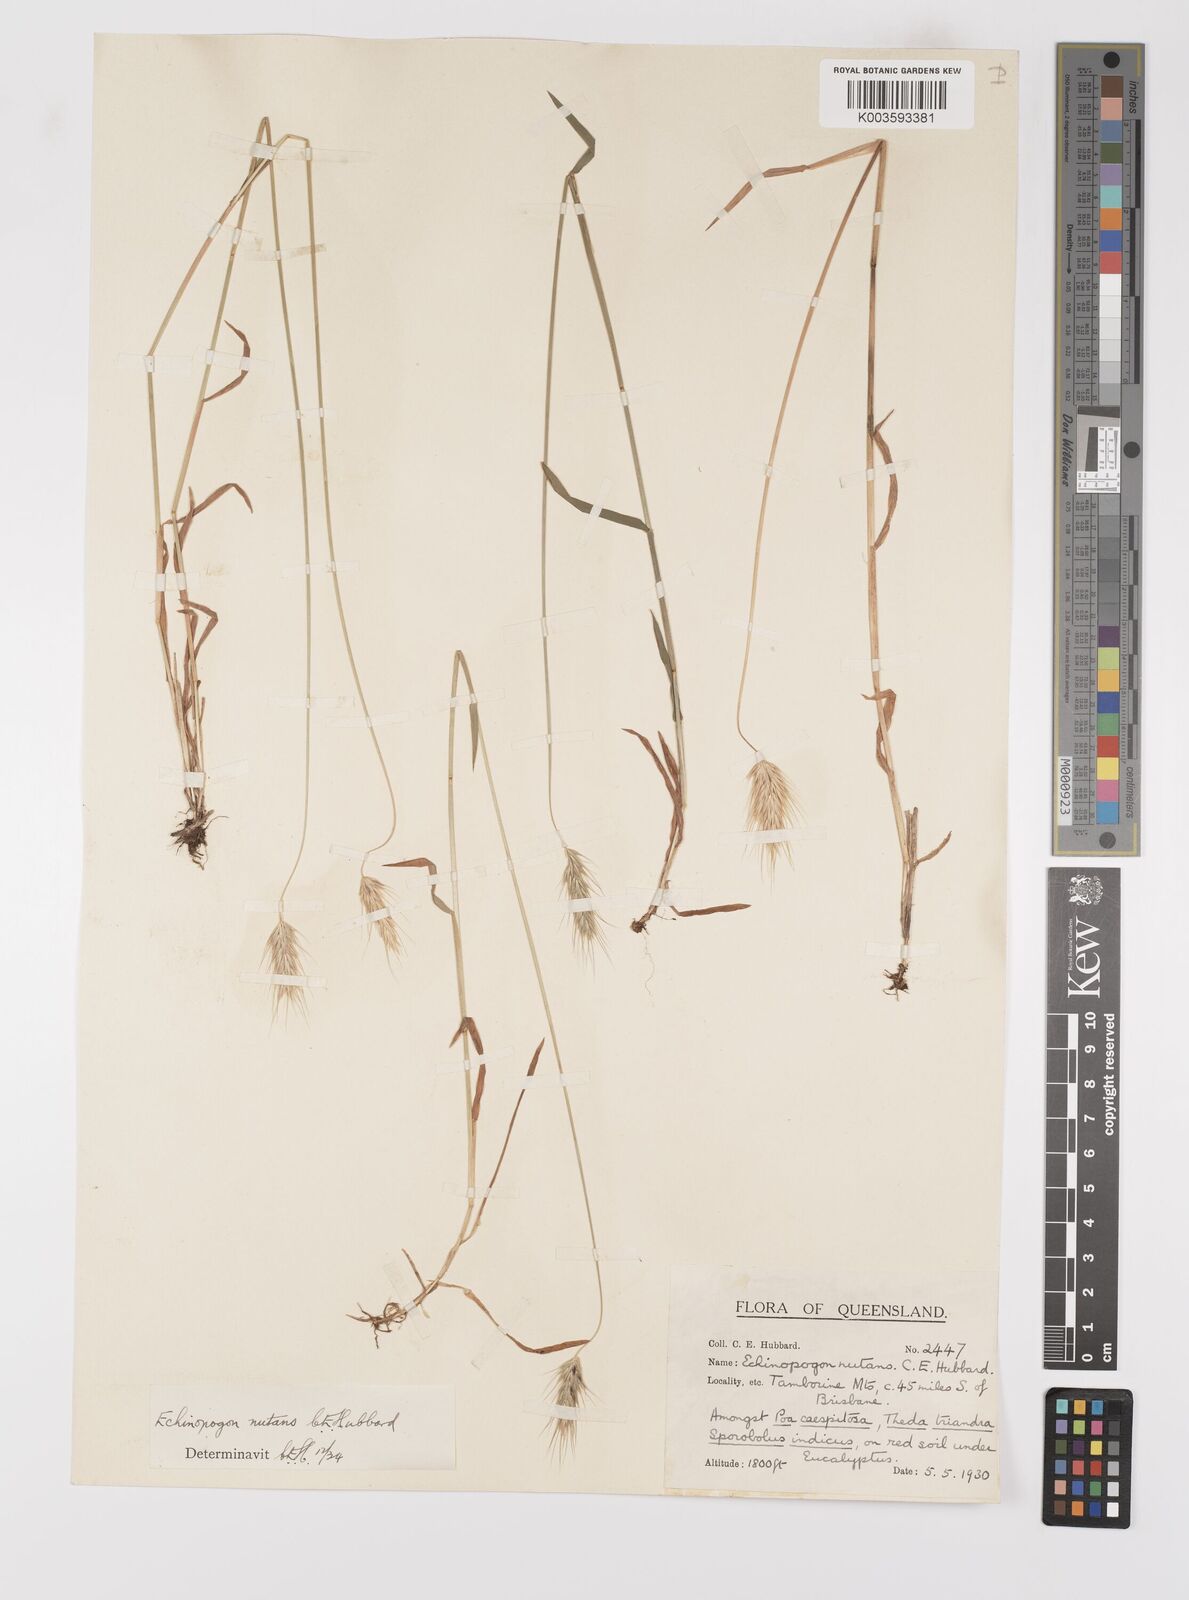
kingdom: Plantae
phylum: Tracheophyta
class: Liliopsida
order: Poales
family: Poaceae
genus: Echinopogon
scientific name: Echinopogon nutans
